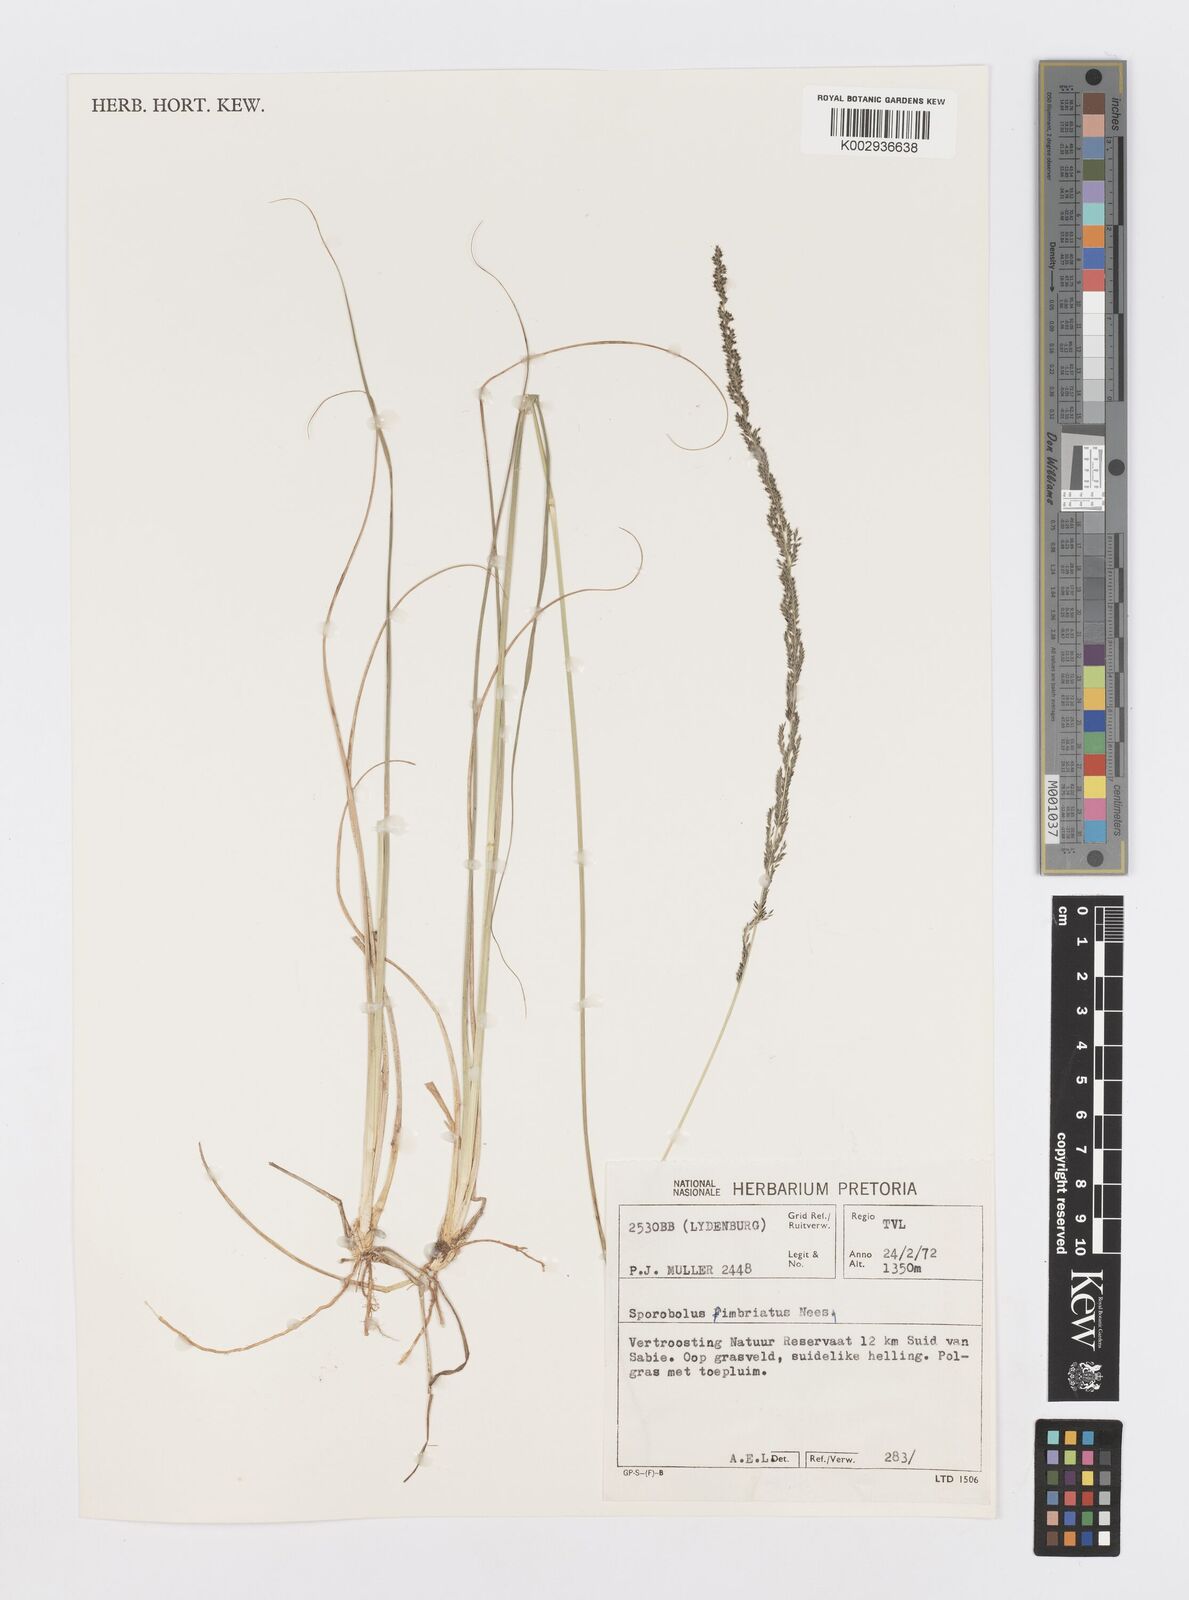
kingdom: Plantae
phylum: Tracheophyta
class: Liliopsida
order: Poales
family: Poaceae
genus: Sporobolus
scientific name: Sporobolus fimbriatus
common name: Fringed dropseed
